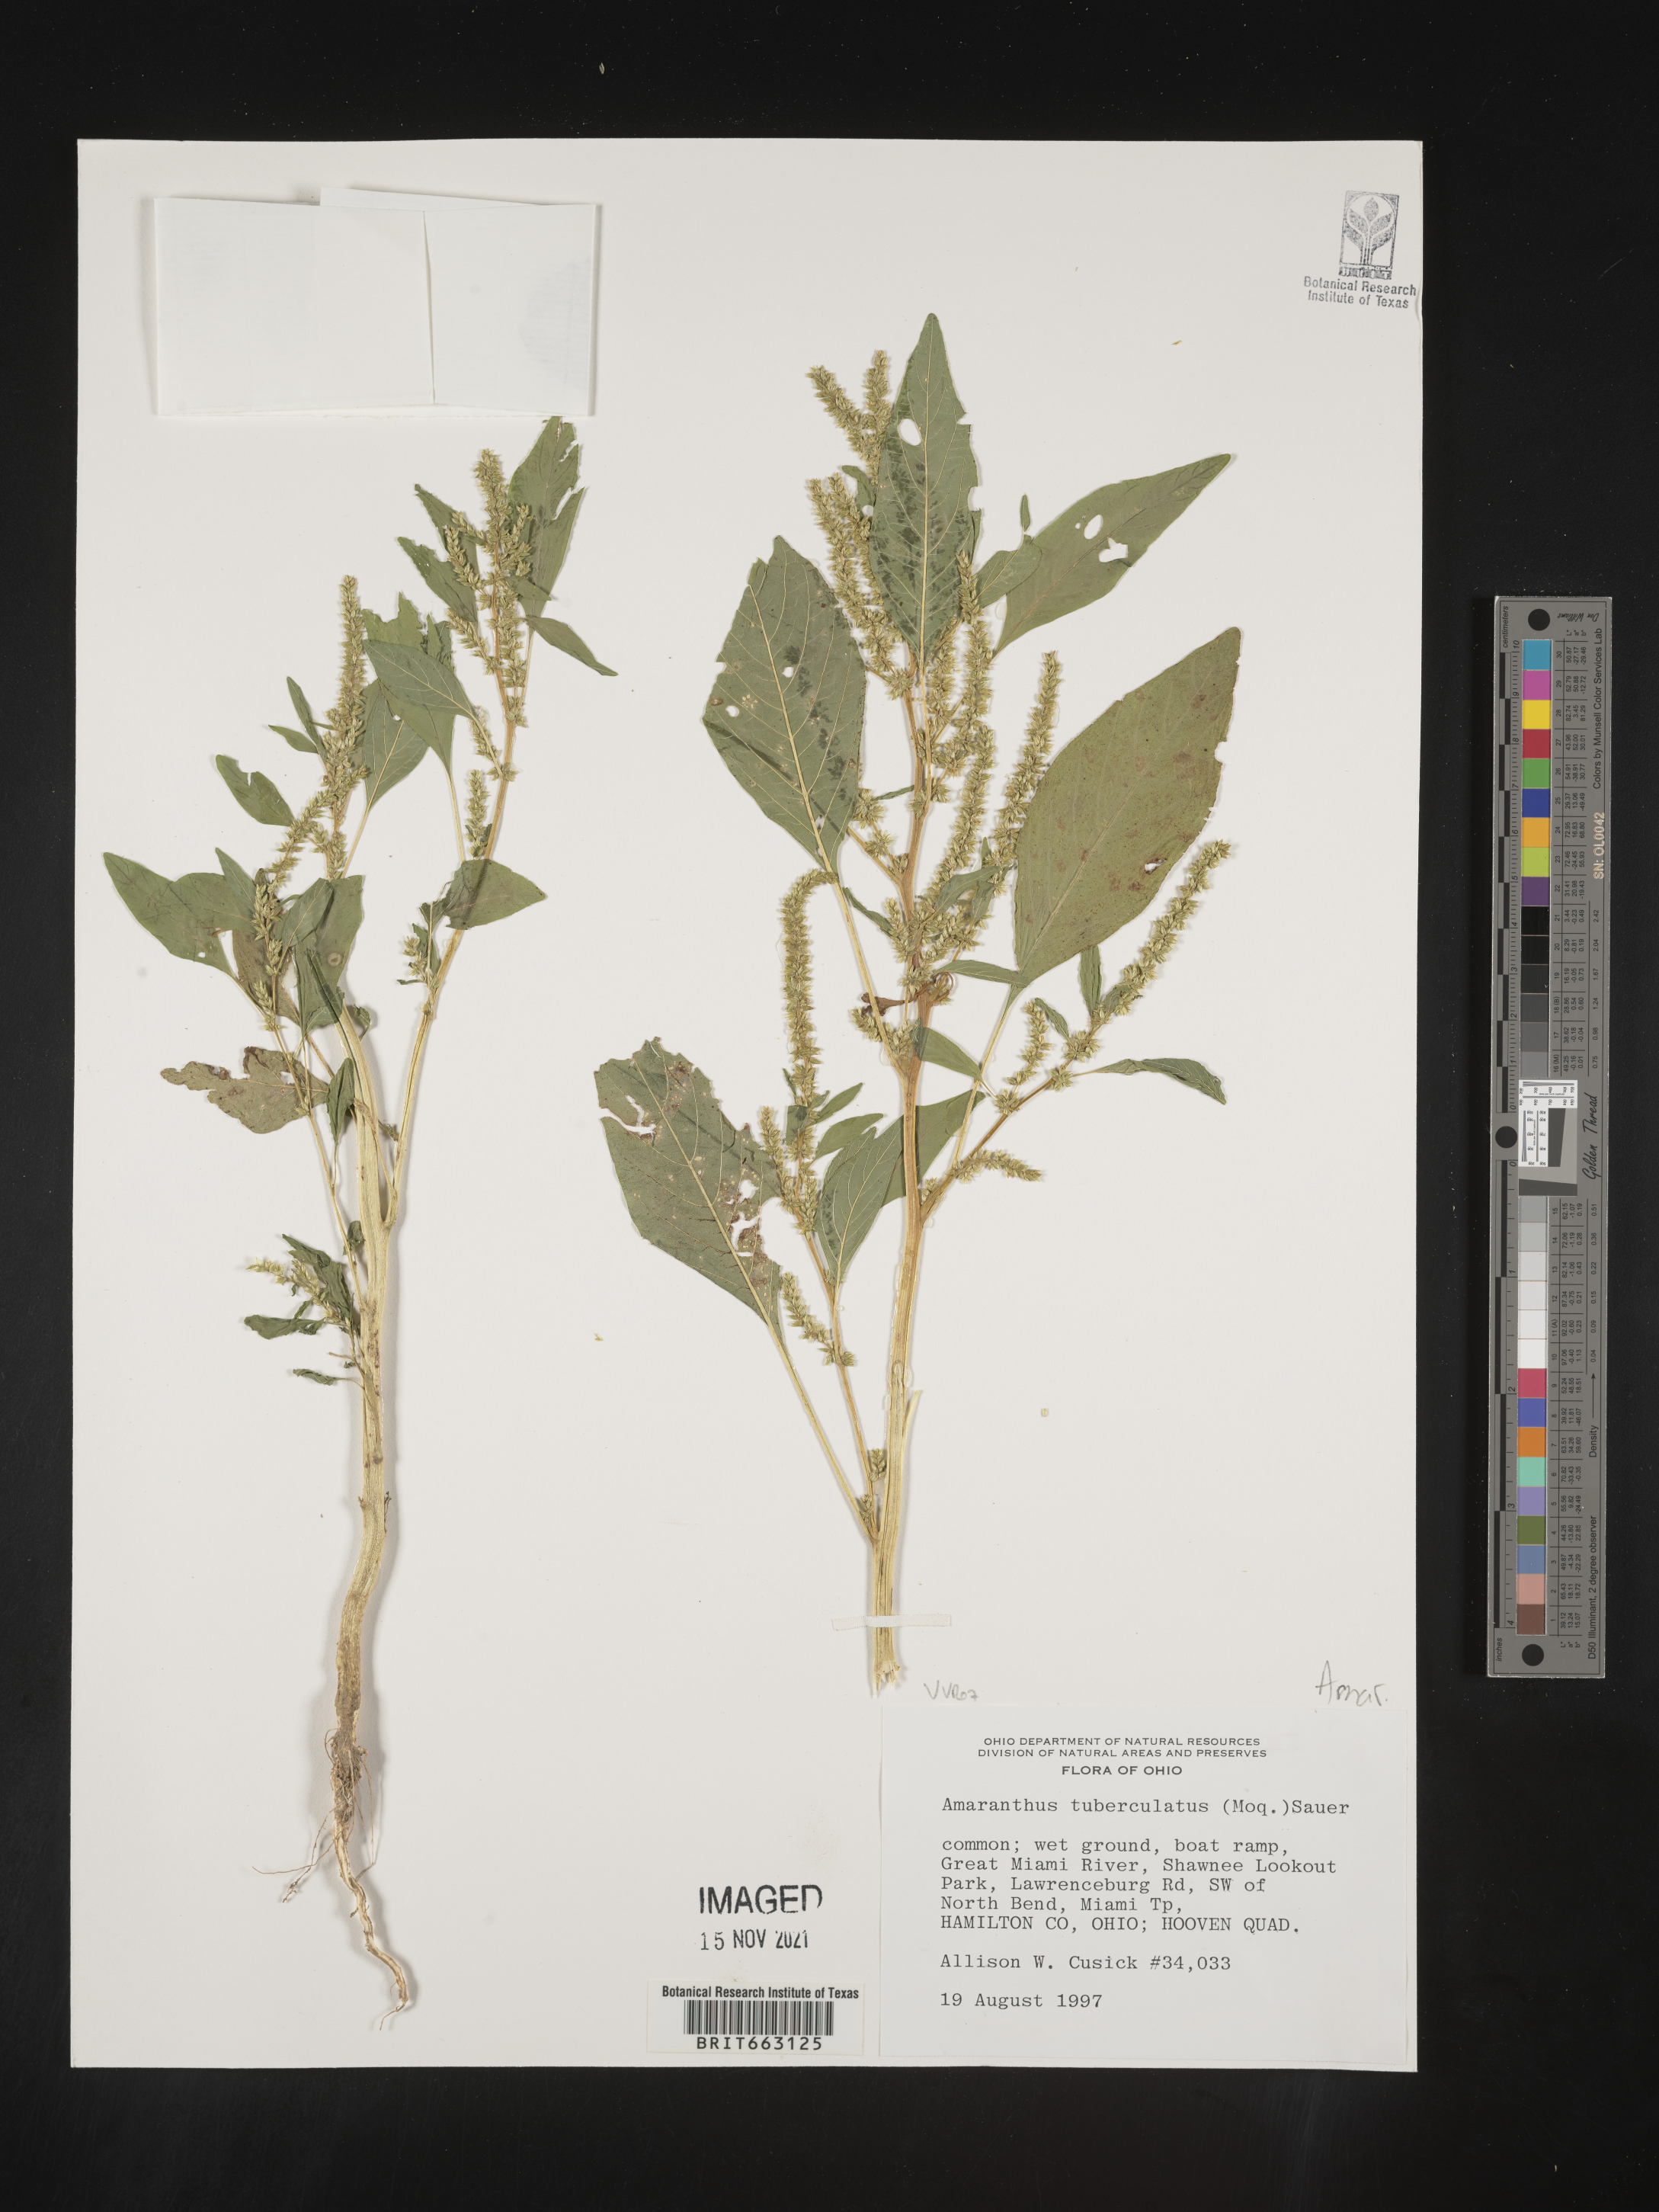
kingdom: Plantae
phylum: Tracheophyta
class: Magnoliopsida
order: Caryophyllales
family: Amaranthaceae
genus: Amaranthus
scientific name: Amaranthus tuberculatus
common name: Rough-fruit amaranth
